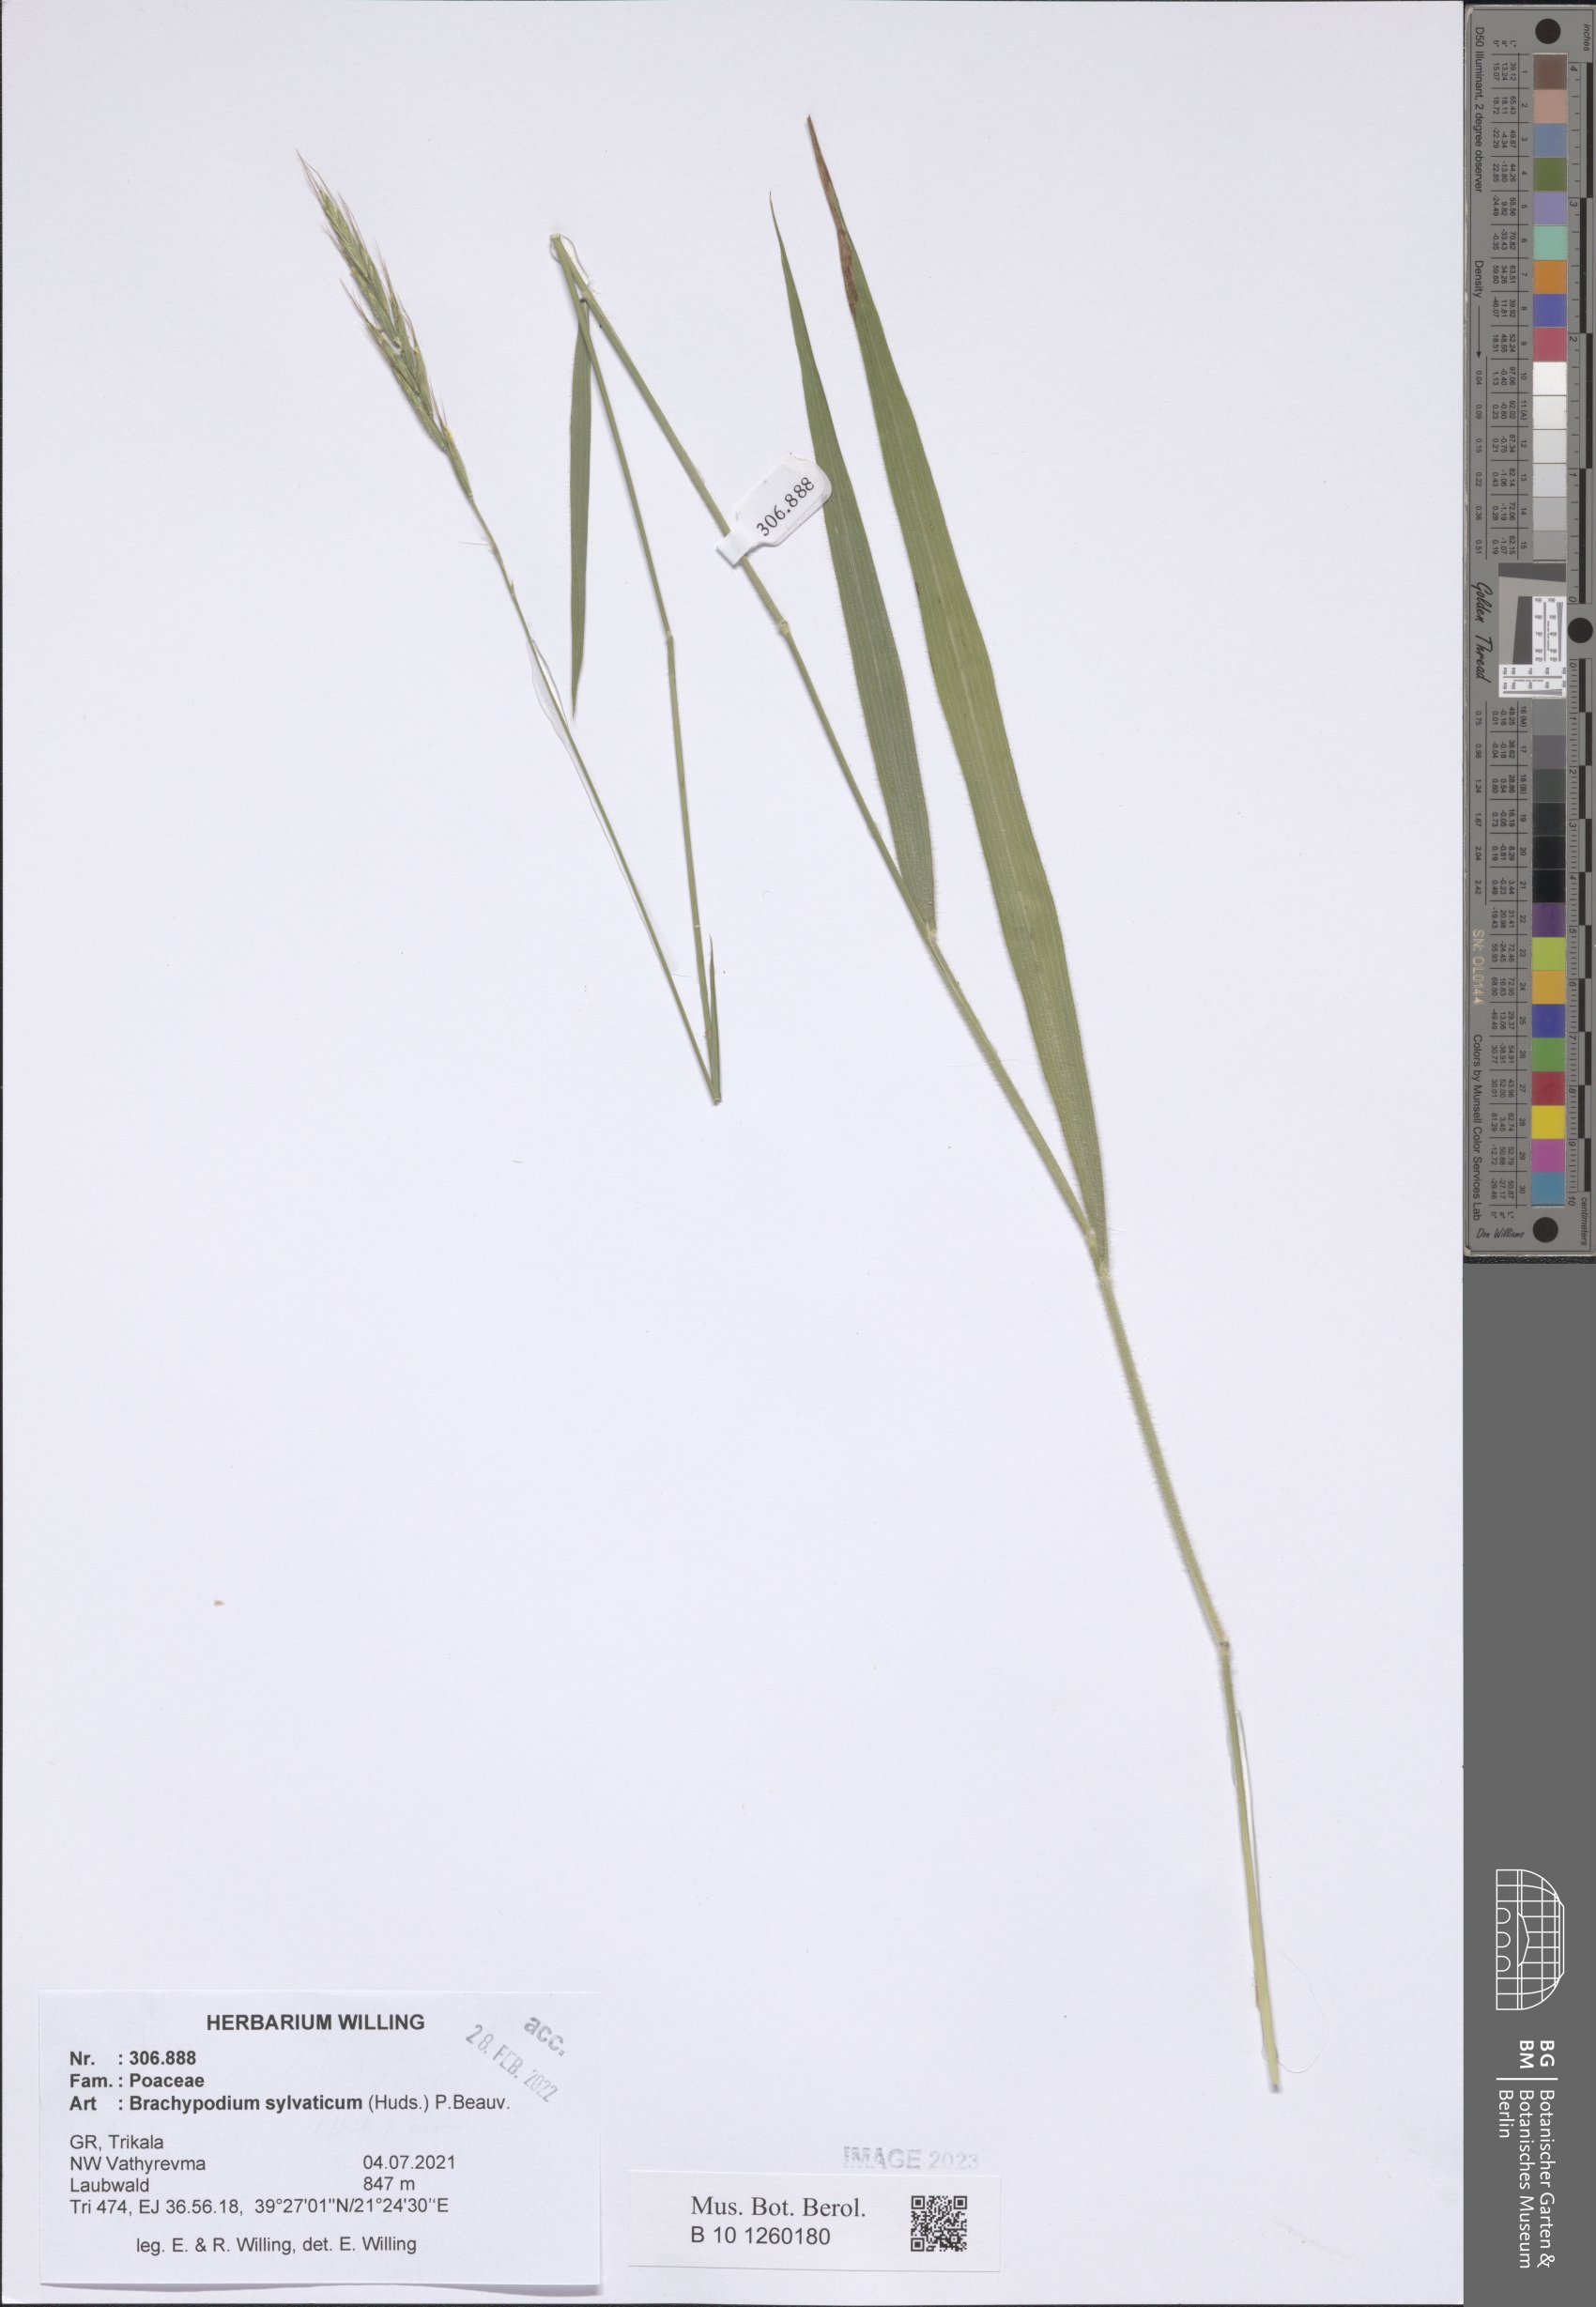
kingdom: Plantae
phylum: Tracheophyta
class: Liliopsida
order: Poales
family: Poaceae
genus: Brachypodium
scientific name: Brachypodium sylvaticum
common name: False-brome
